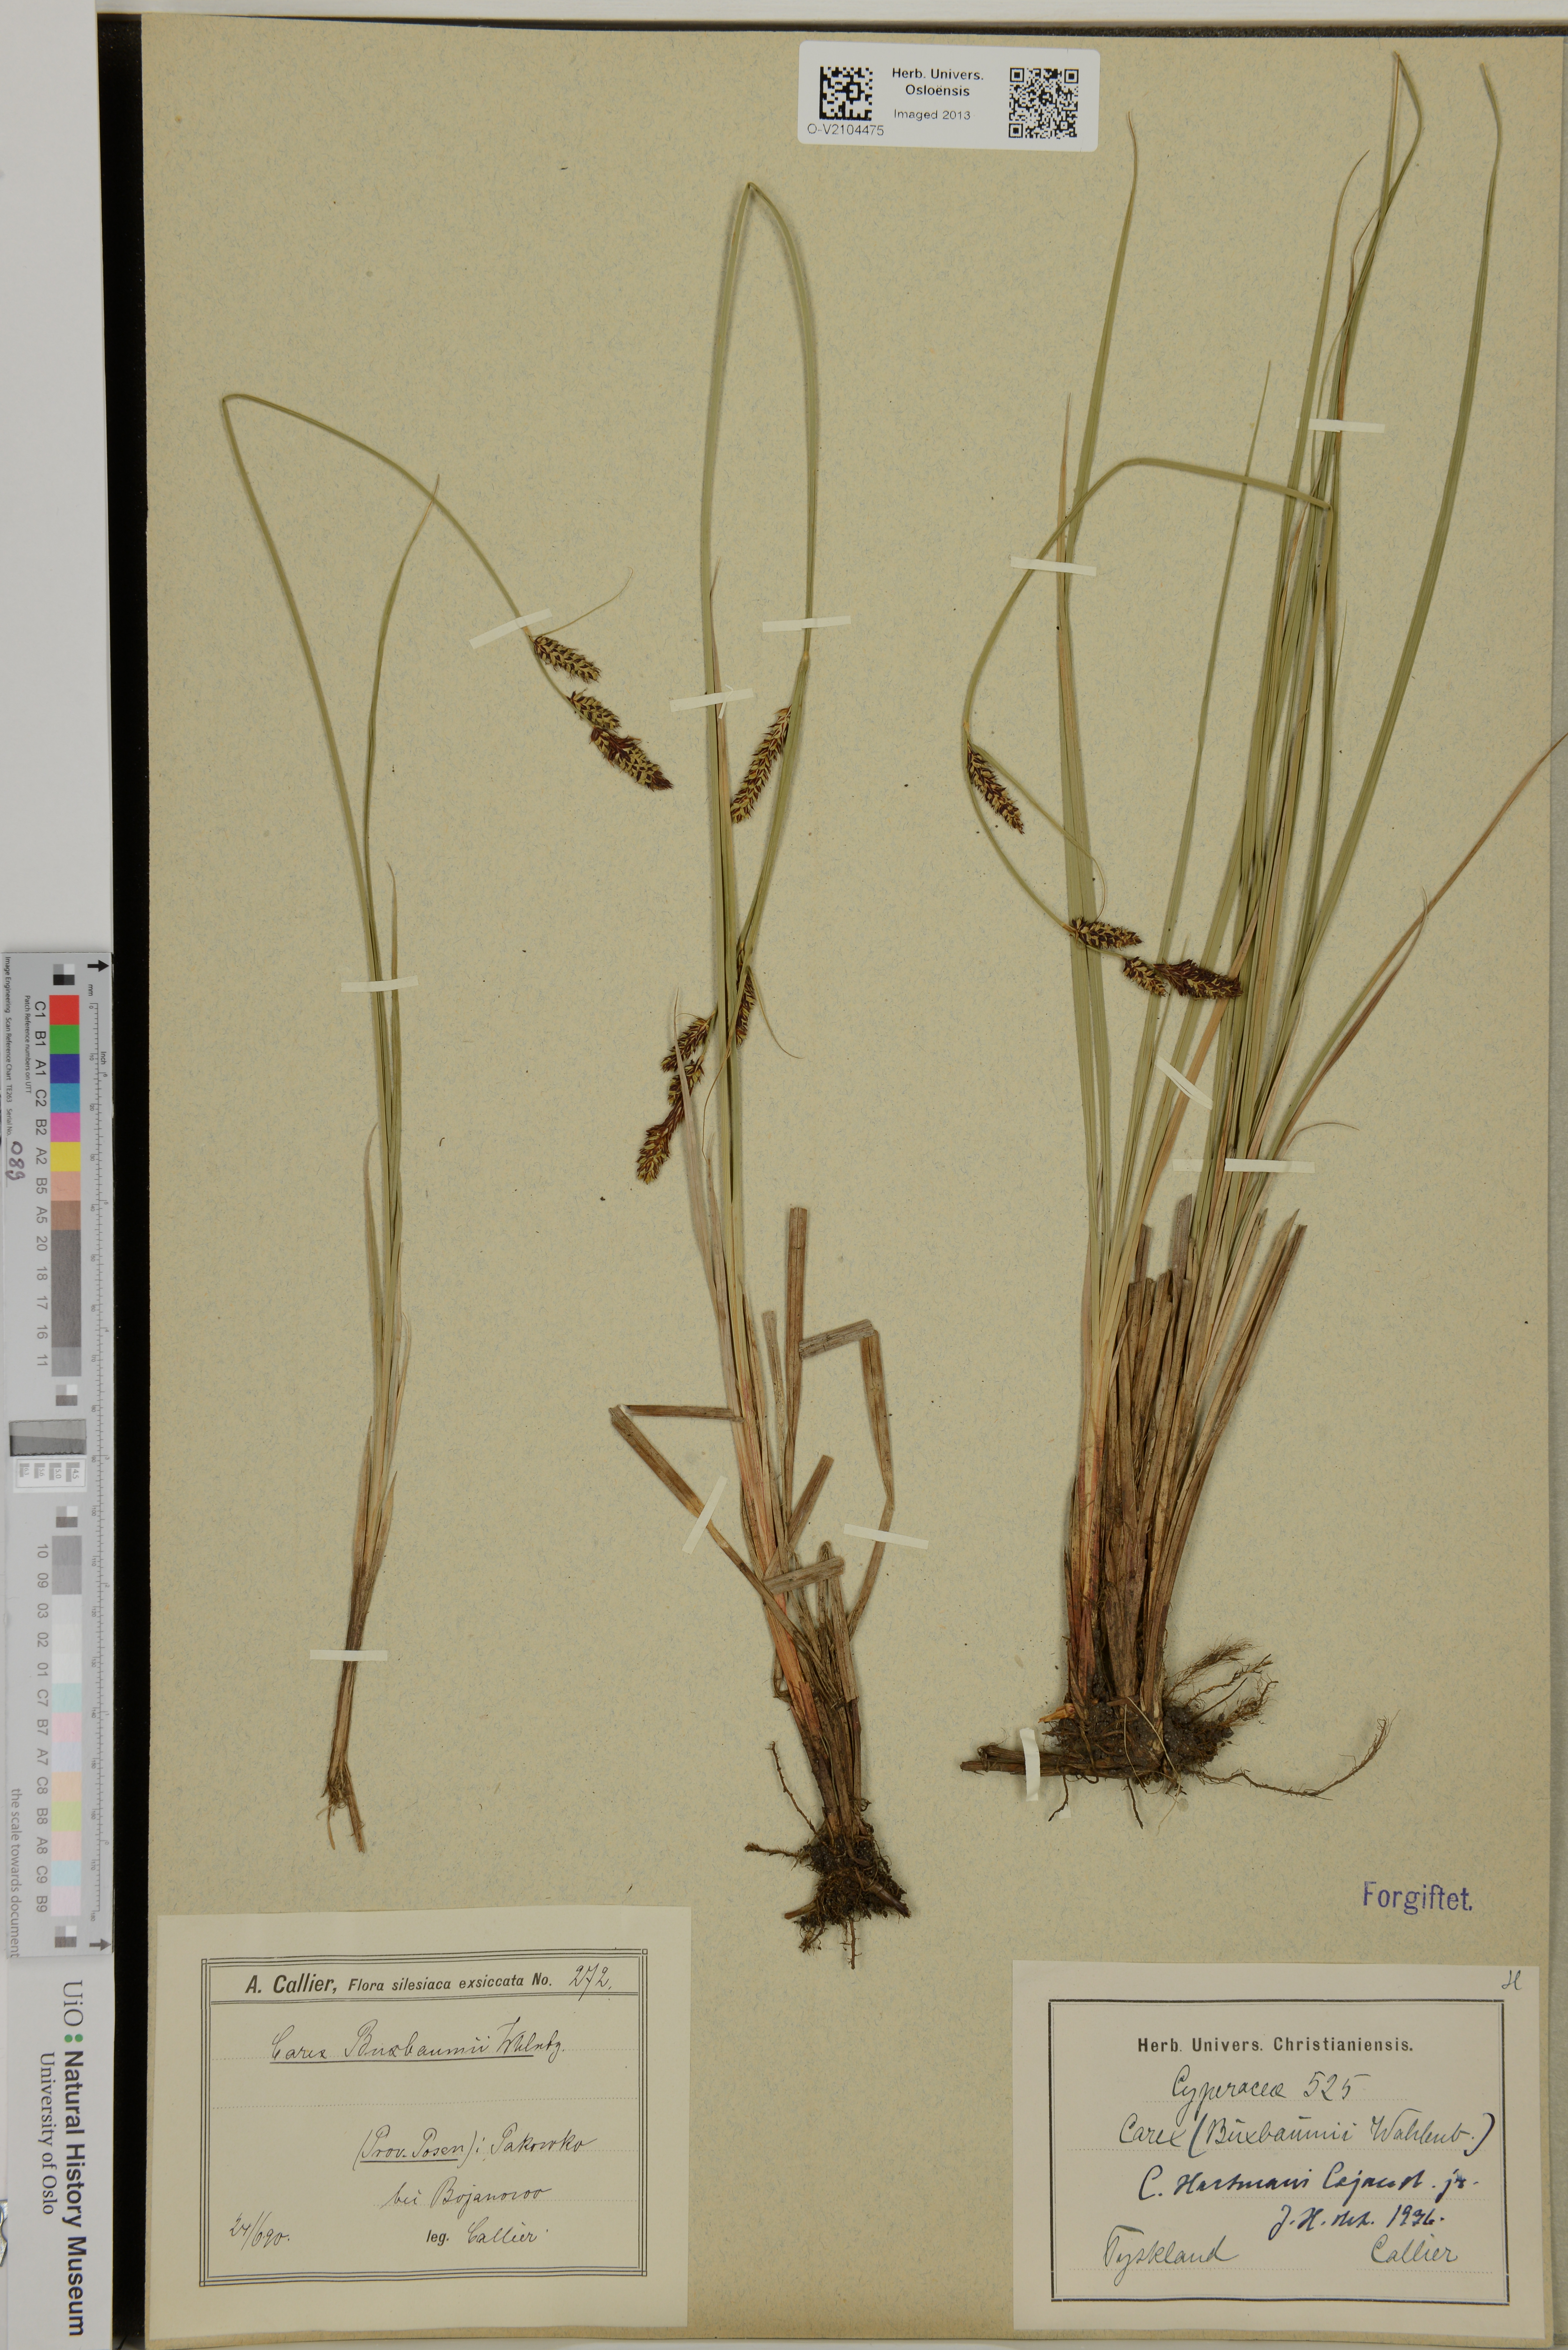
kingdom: Plantae
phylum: Tracheophyta
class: Liliopsida
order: Poales
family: Cyperaceae
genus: Carex
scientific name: Carex hartmaniorum
